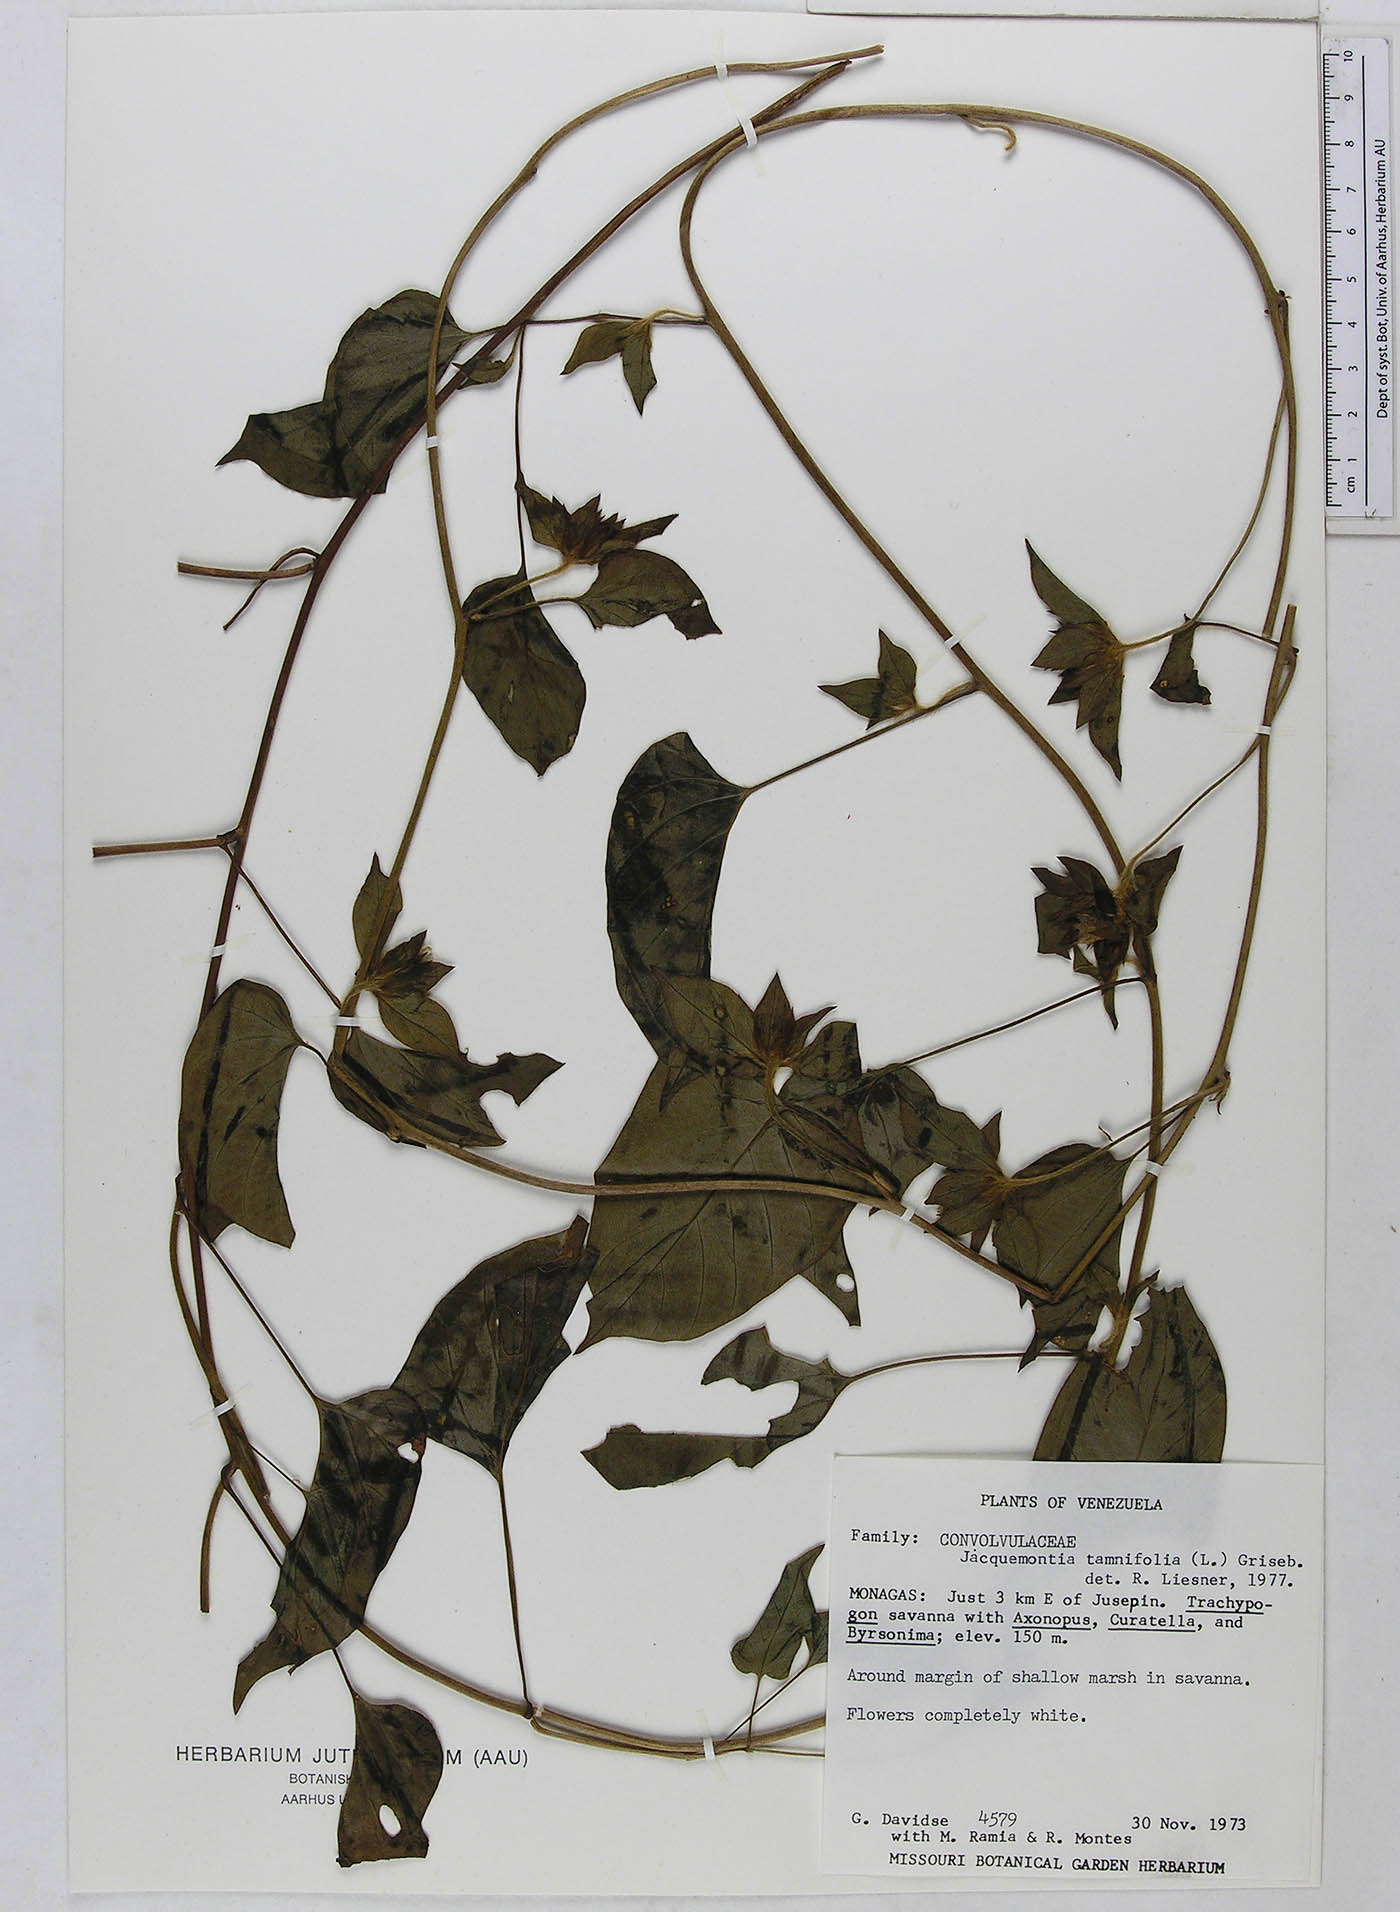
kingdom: Plantae
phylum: Tracheophyta
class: Magnoliopsida
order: Solanales
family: Convolvulaceae
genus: Jacquemontia
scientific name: Jacquemontia tamnifolia
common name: Hairy clustervine
